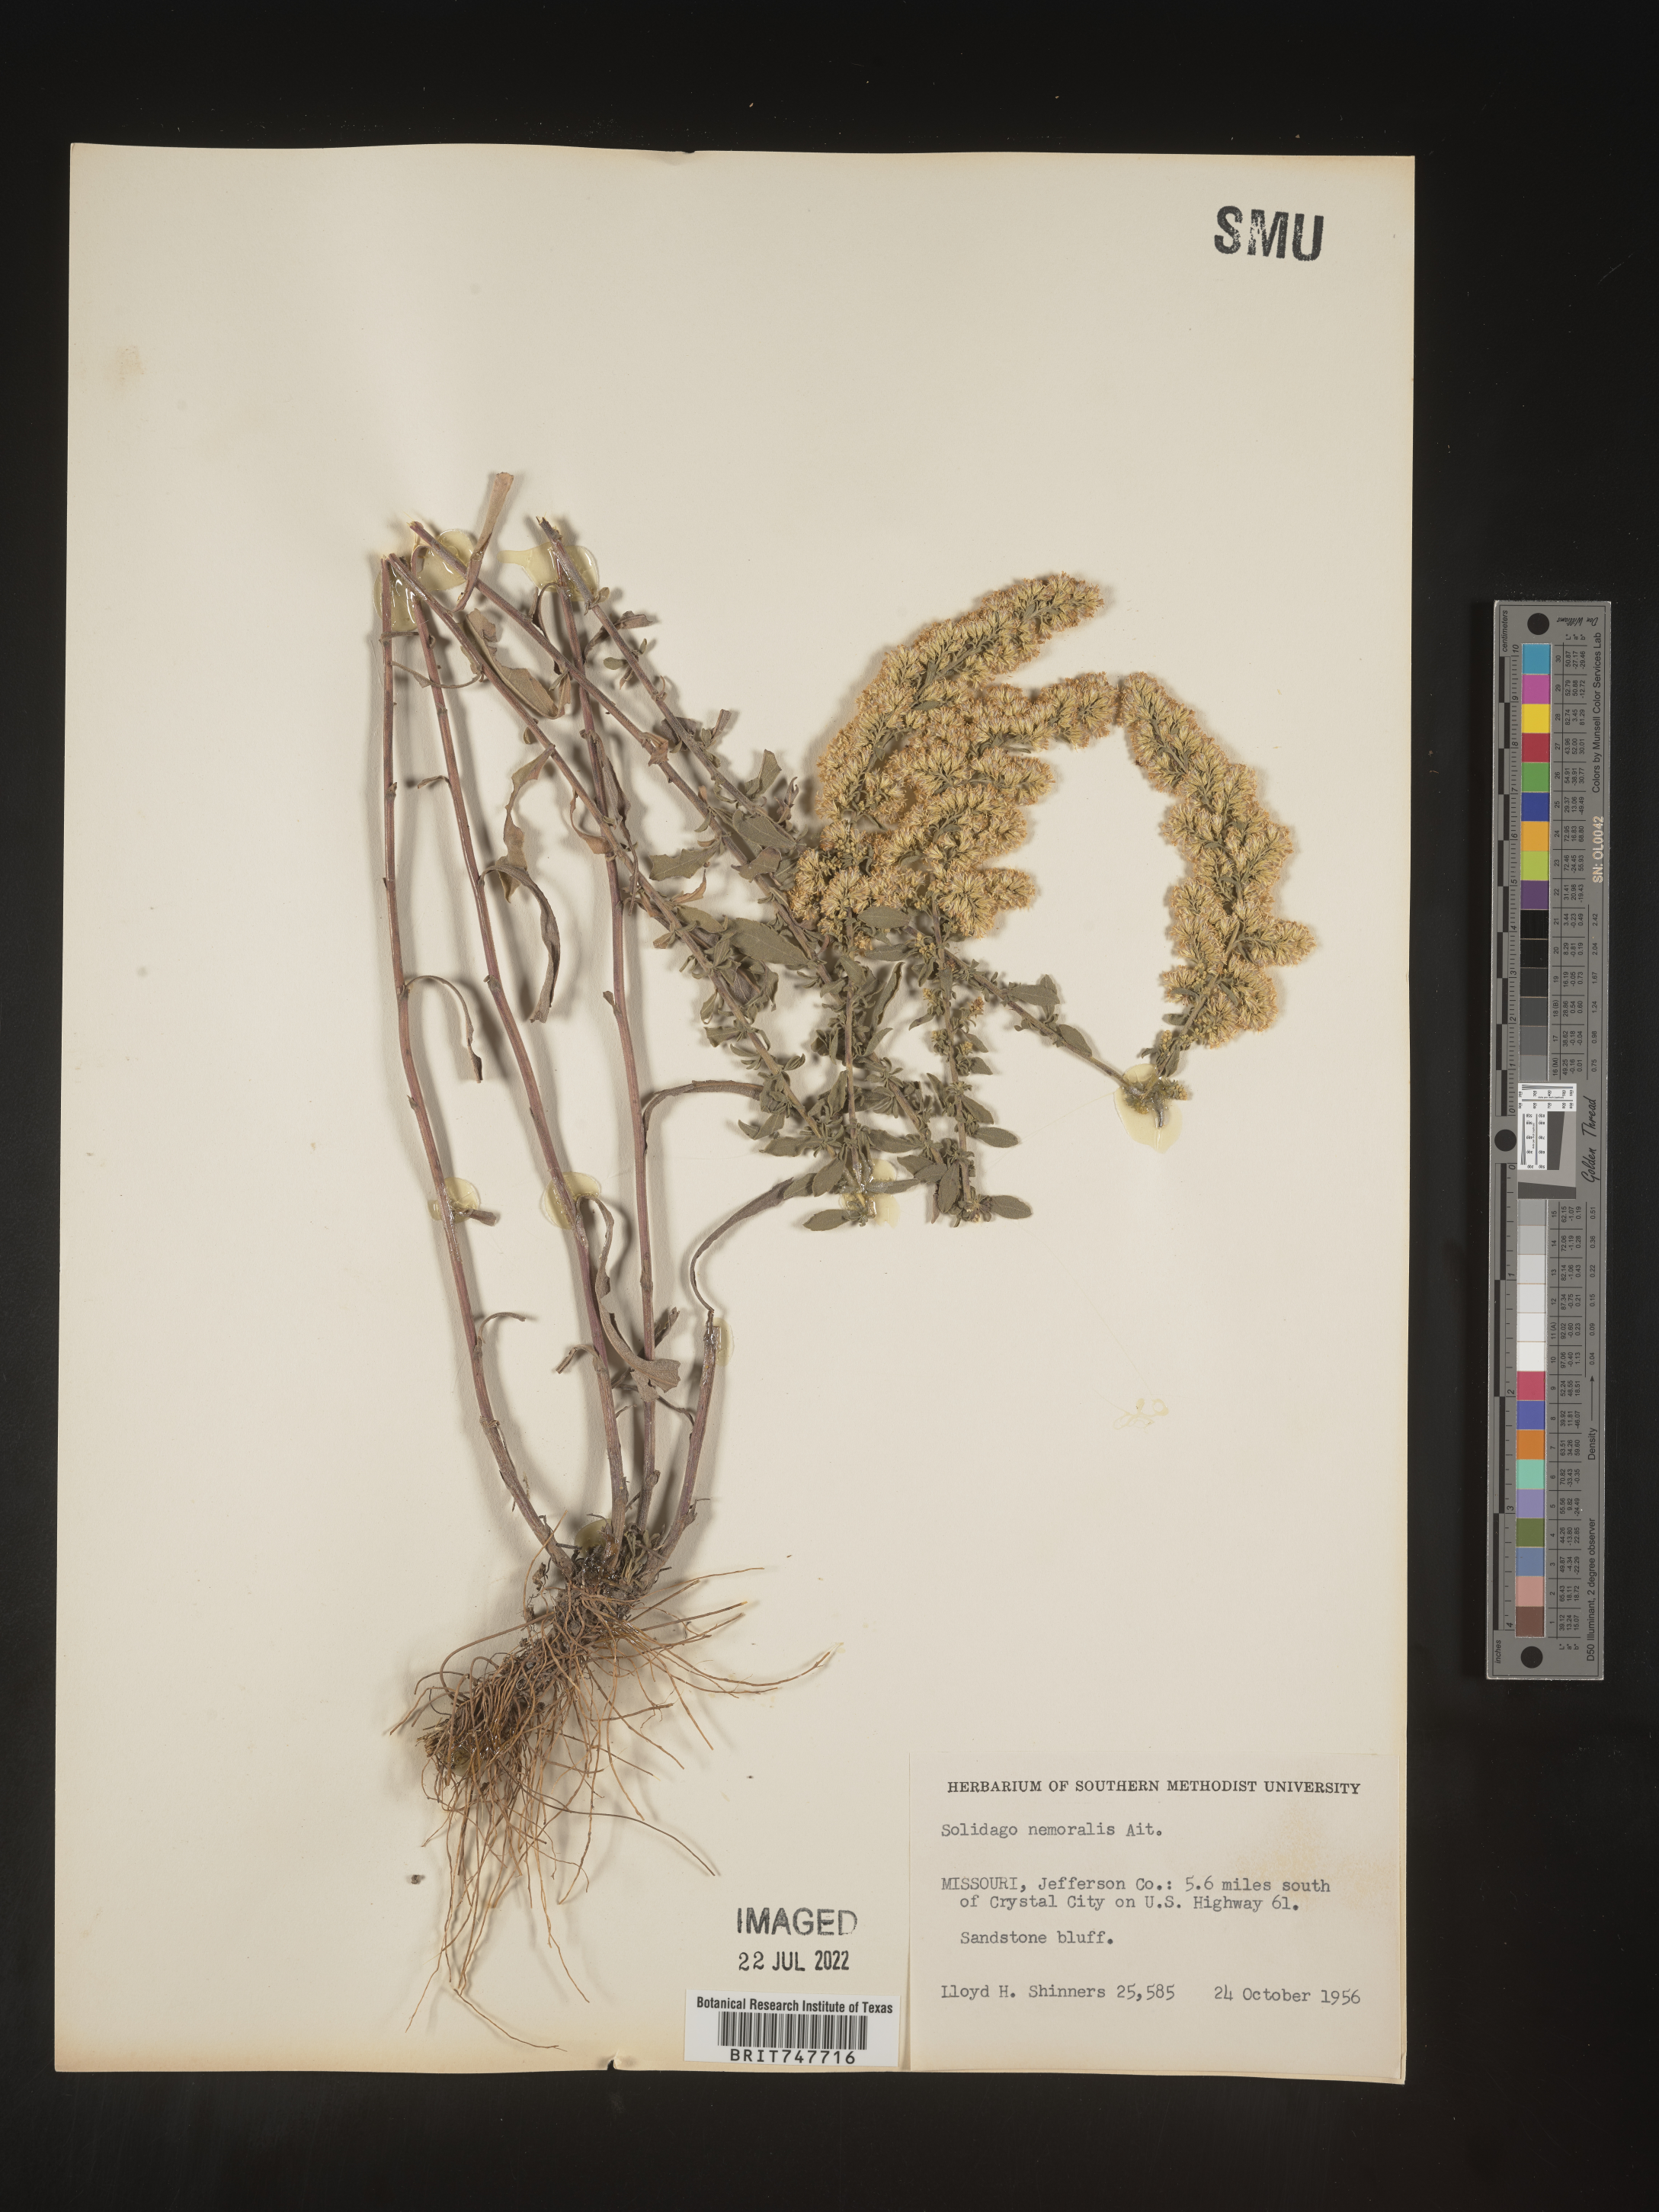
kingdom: Plantae
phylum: Tracheophyta
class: Magnoliopsida
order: Asterales
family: Asteraceae
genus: Solidago
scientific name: Solidago nemoralis
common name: Grey goldenrod
